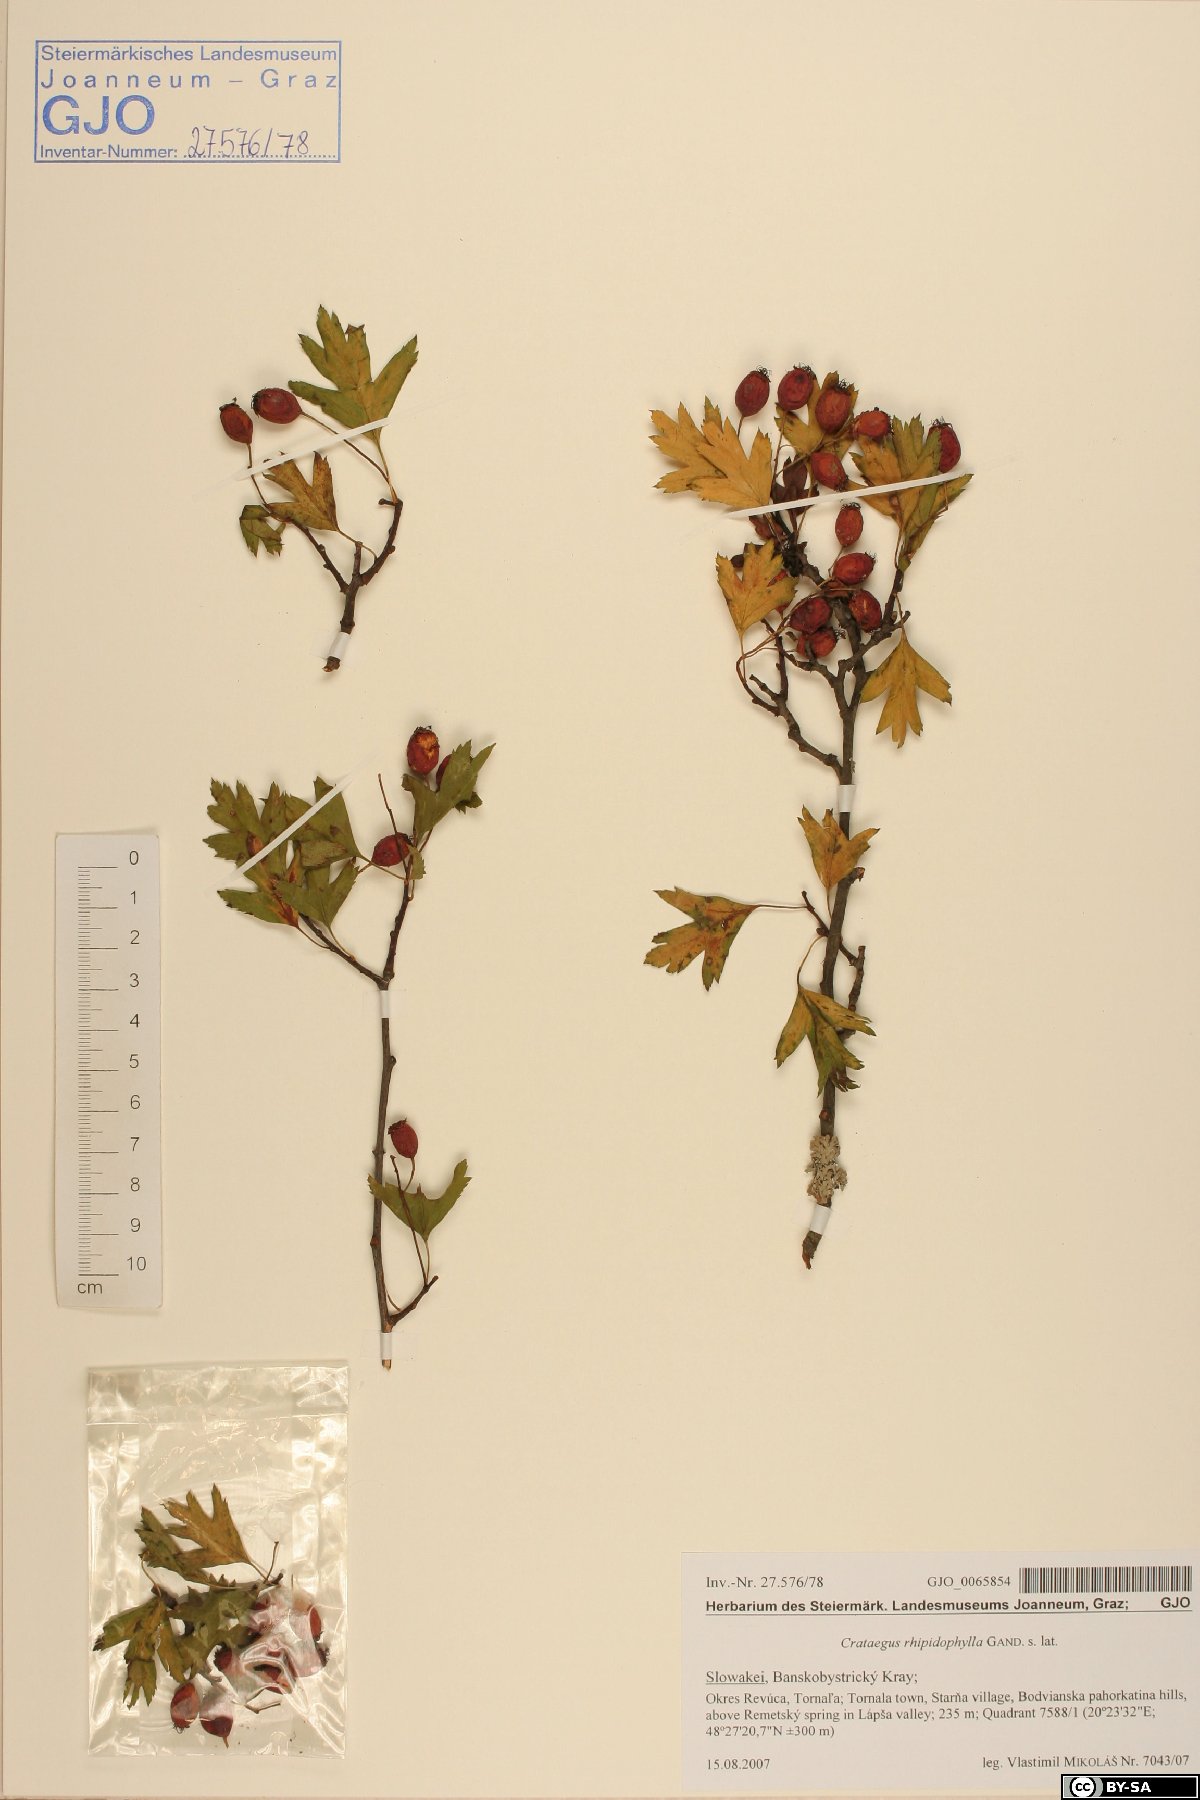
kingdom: Plantae
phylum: Tracheophyta
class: Magnoliopsida
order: Rosales
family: Rosaceae
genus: Crataegus
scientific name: Crataegus rhipidophylla
